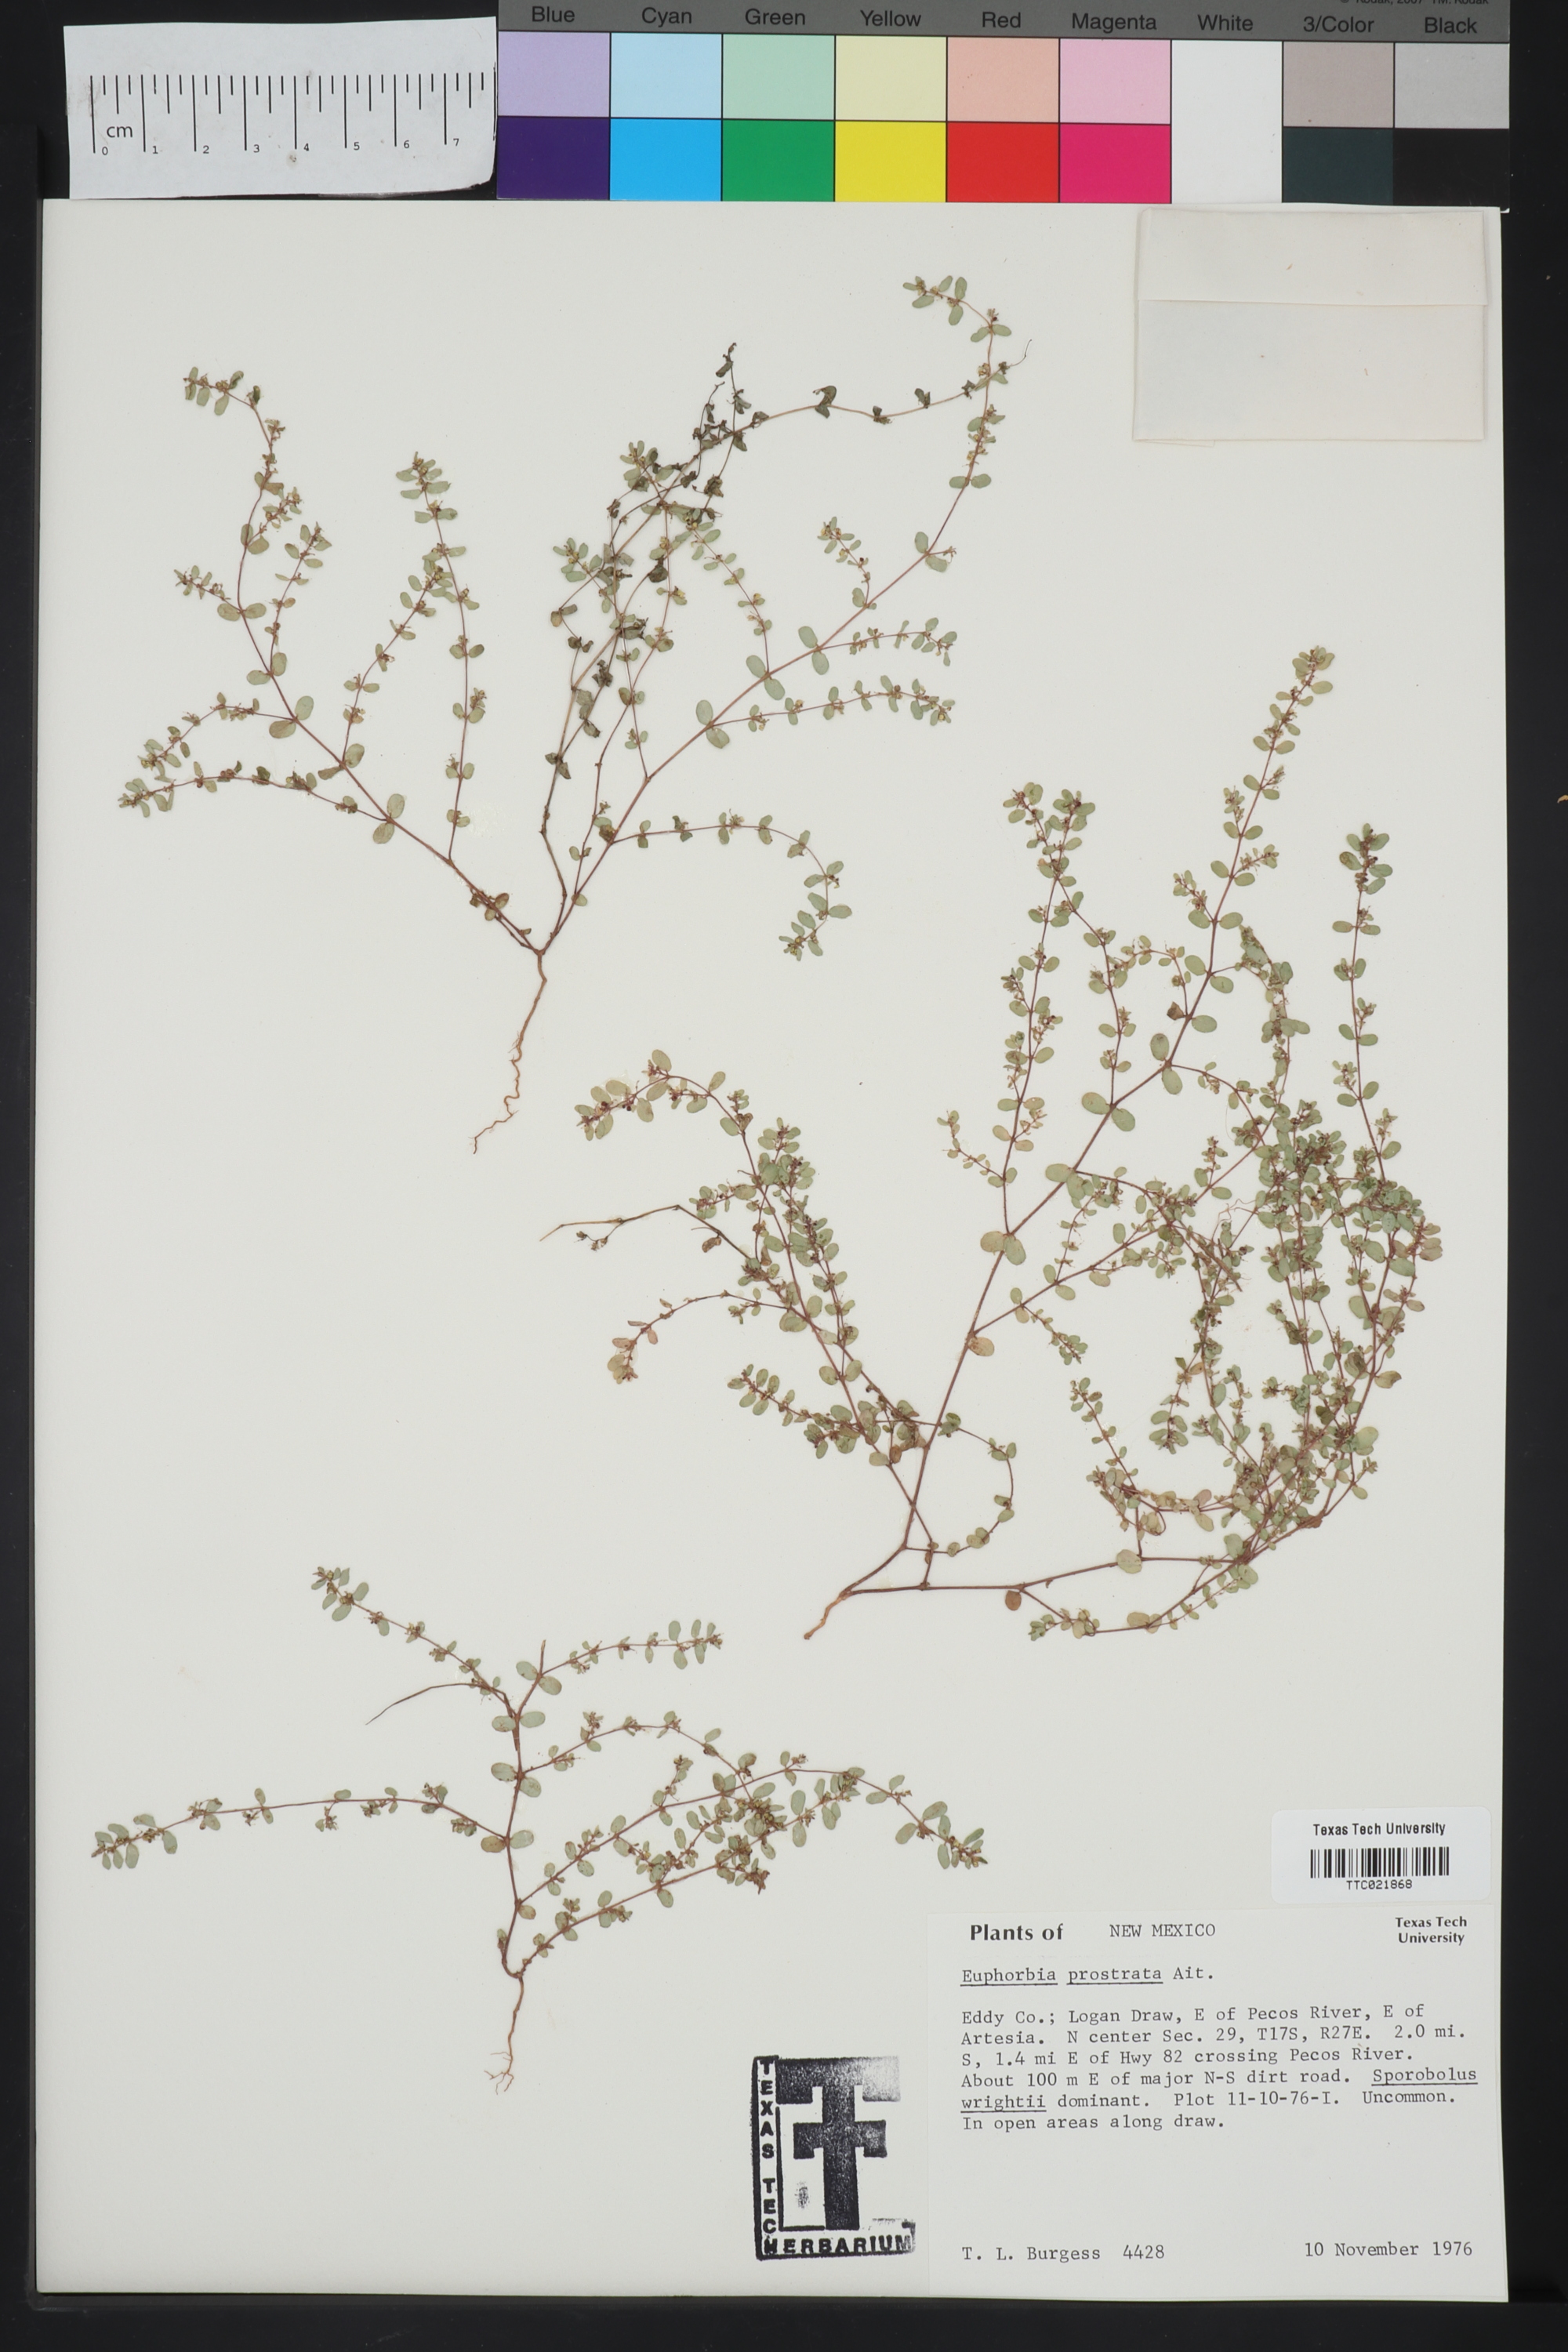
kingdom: Plantae
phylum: Tracheophyta
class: Magnoliopsida
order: Malpighiales
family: Euphorbiaceae
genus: Euphorbia
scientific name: Euphorbia prostrata
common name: Prostrate sandmat
